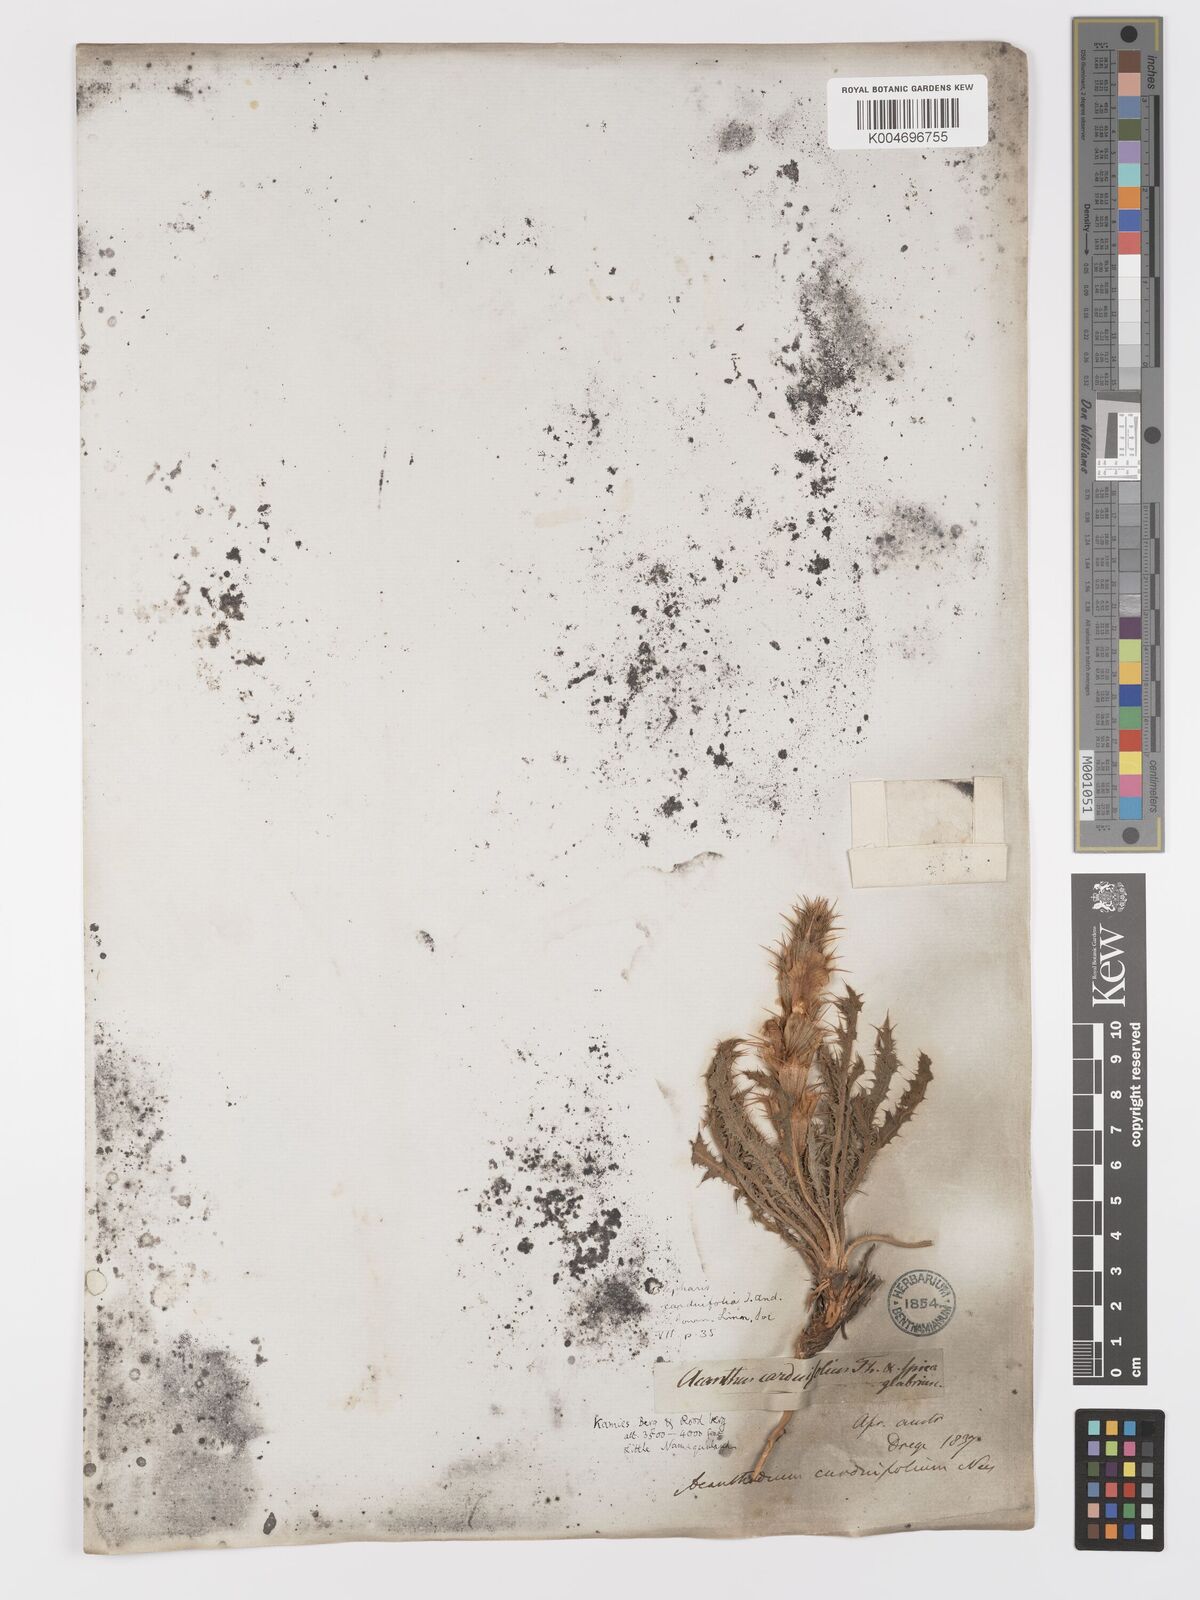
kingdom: Plantae
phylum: Tracheophyta
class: Magnoliopsida
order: Lamiales
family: Acanthaceae
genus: Acanthopsis
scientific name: Acanthopsis carduifolia
